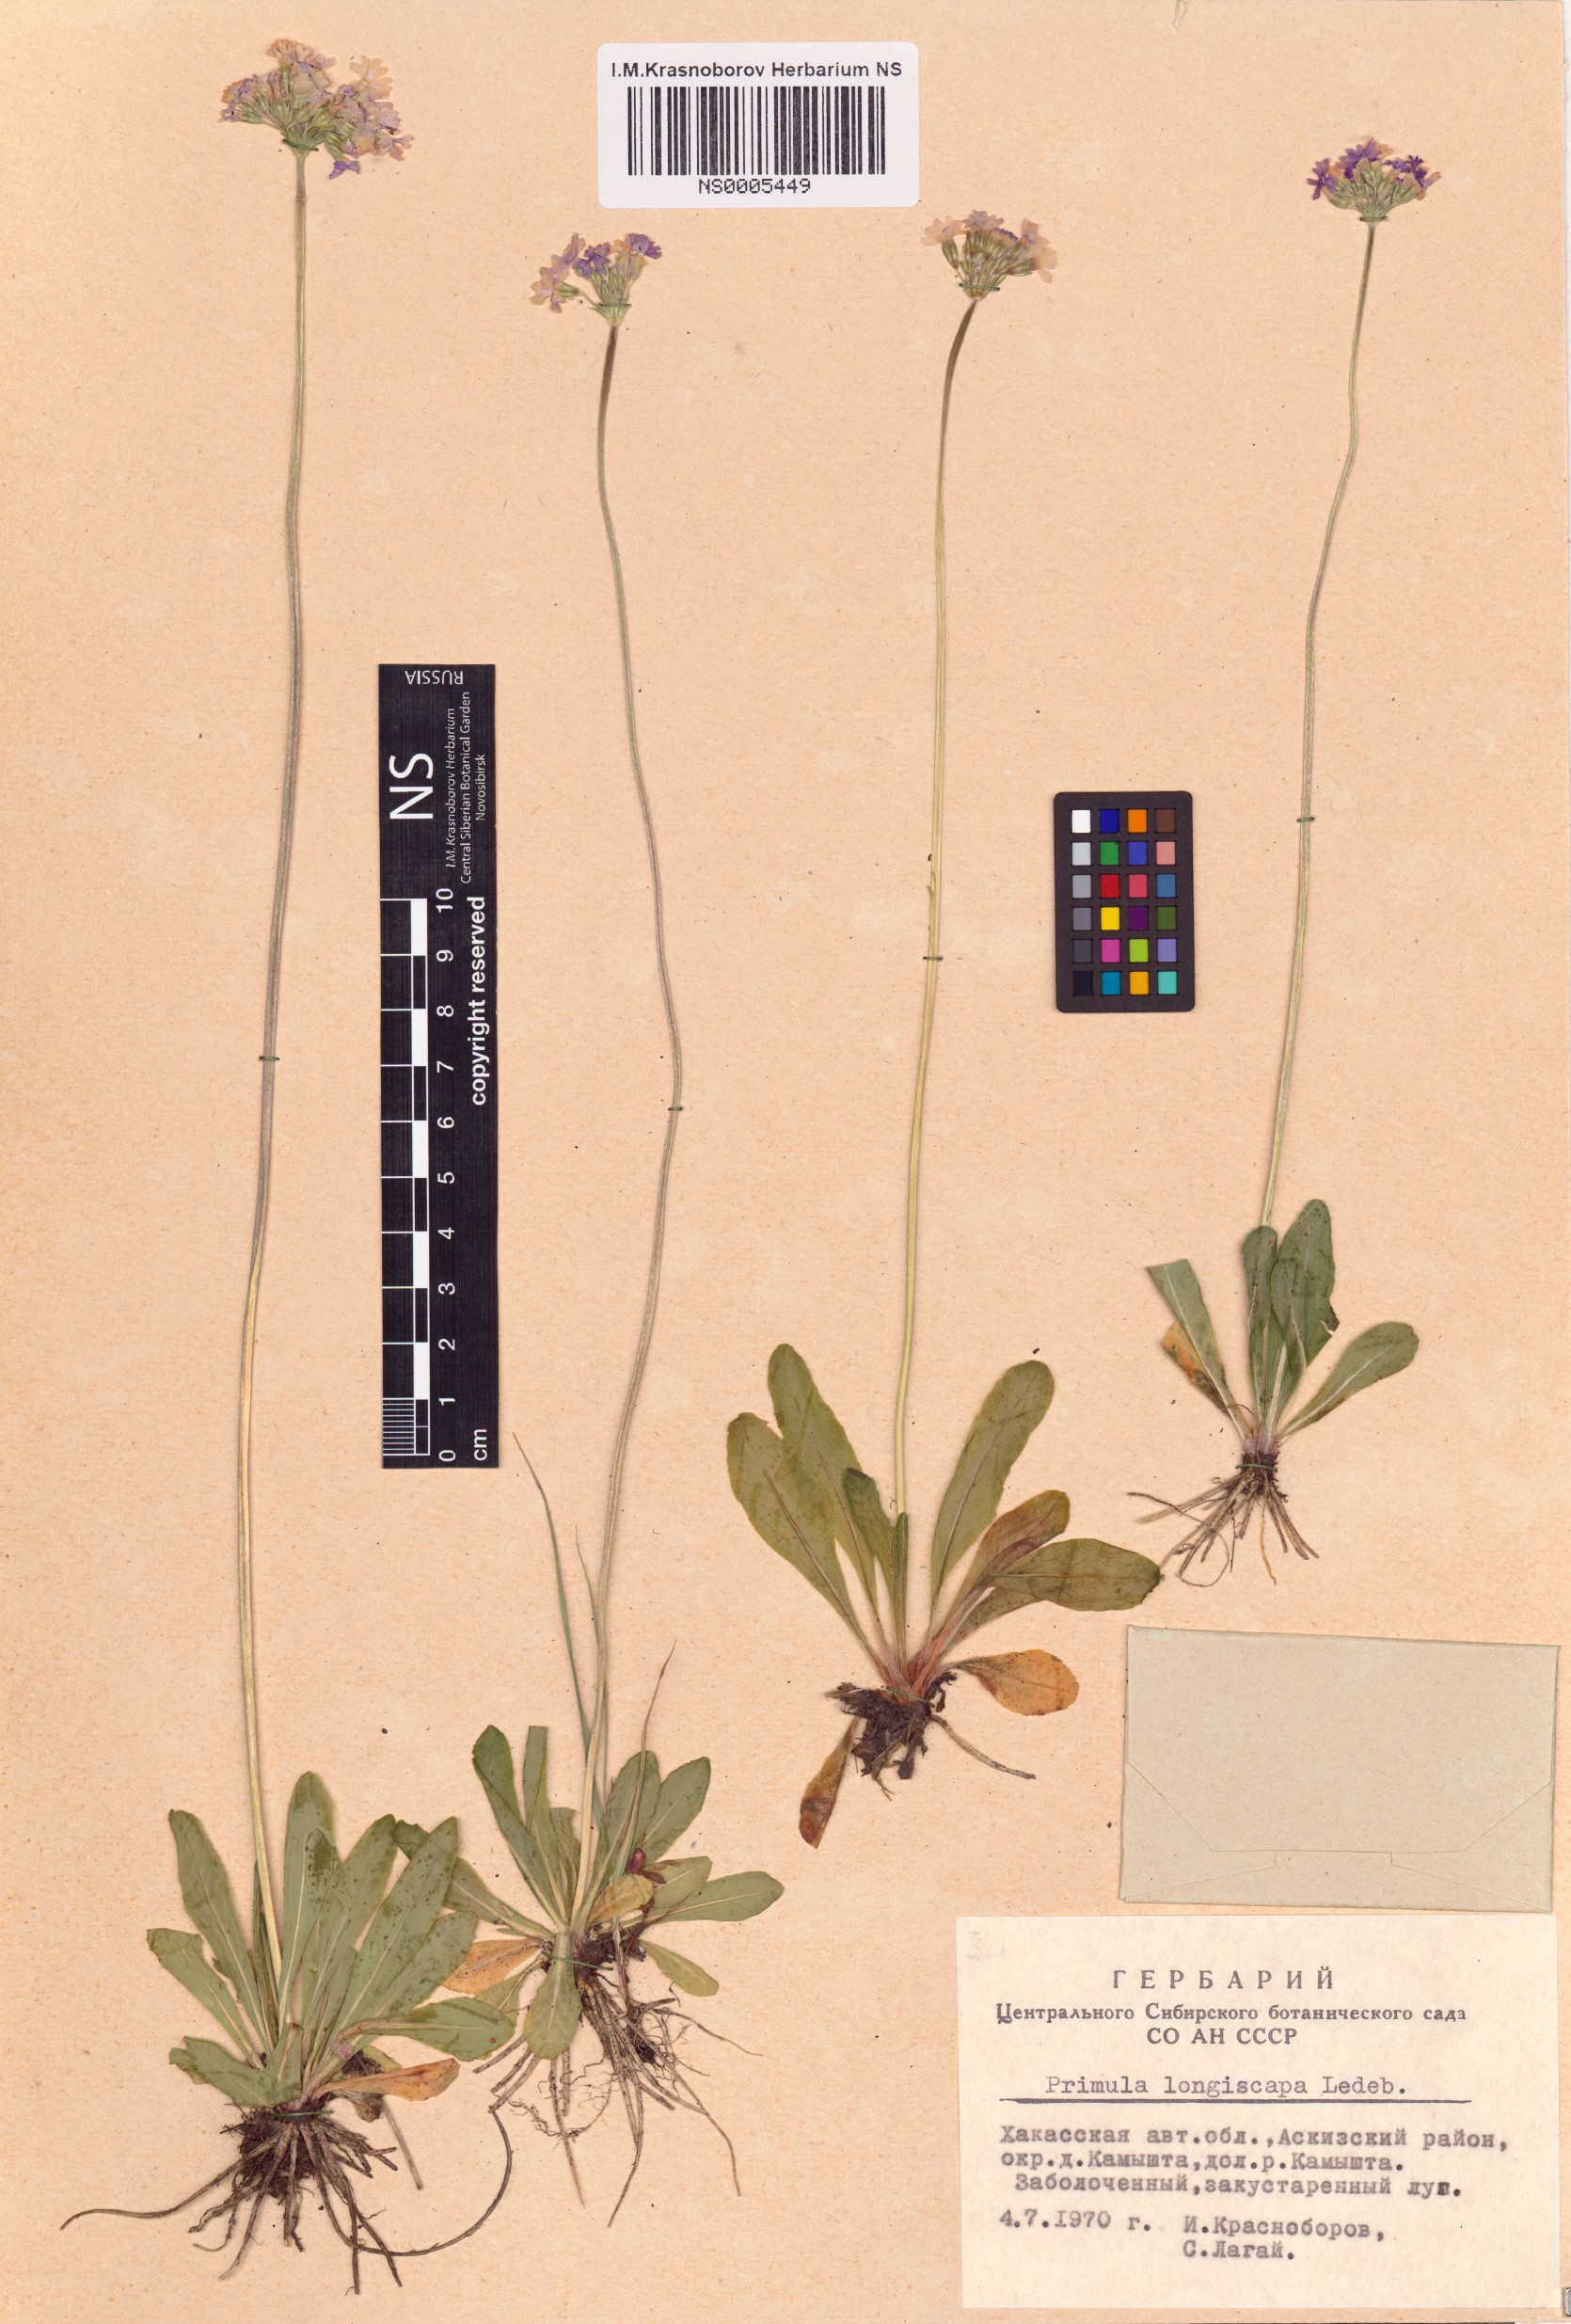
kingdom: Plantae
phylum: Tracheophyta
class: Magnoliopsida
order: Ericales
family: Primulaceae
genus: Primula
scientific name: Primula longiscapa
